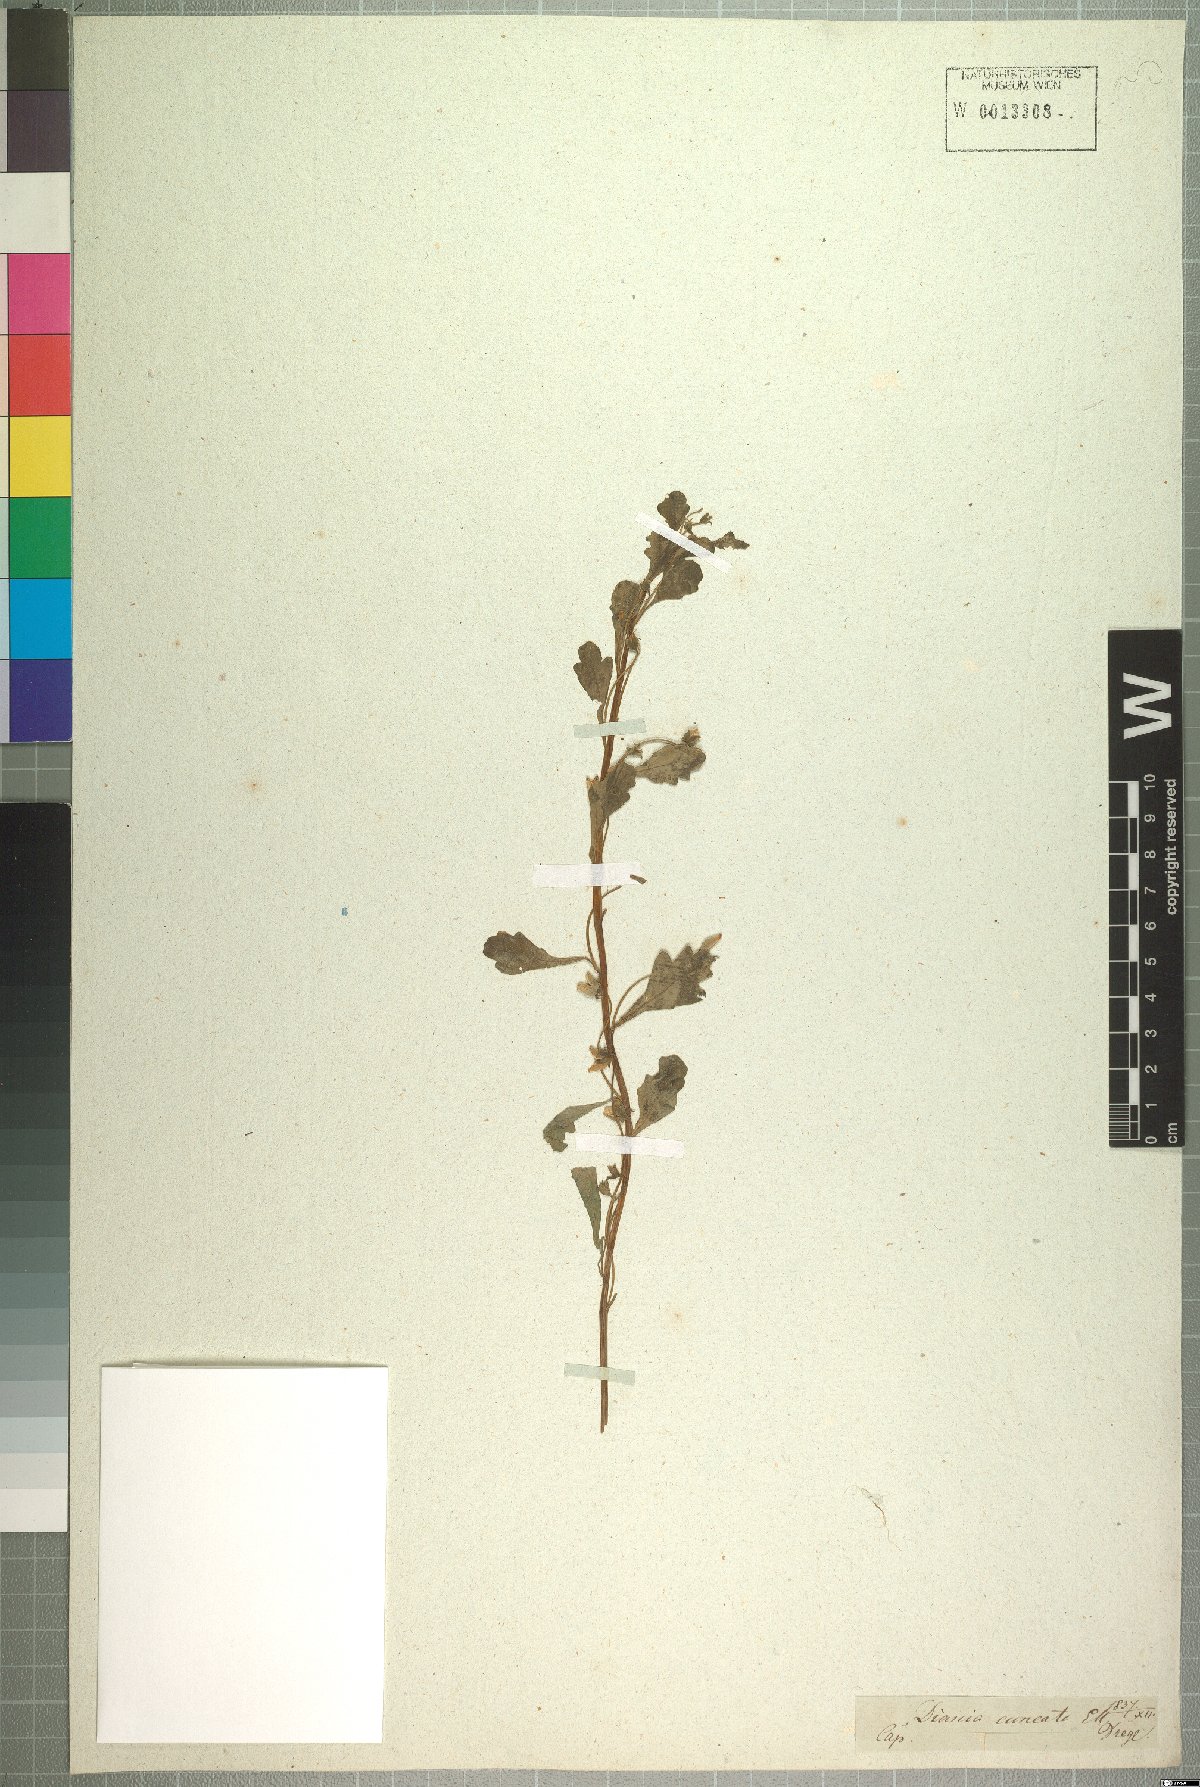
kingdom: Plantae
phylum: Tracheophyta
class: Magnoliopsida
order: Lamiales
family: Scrophulariaceae
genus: Diascia
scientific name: Diascia cuneata
